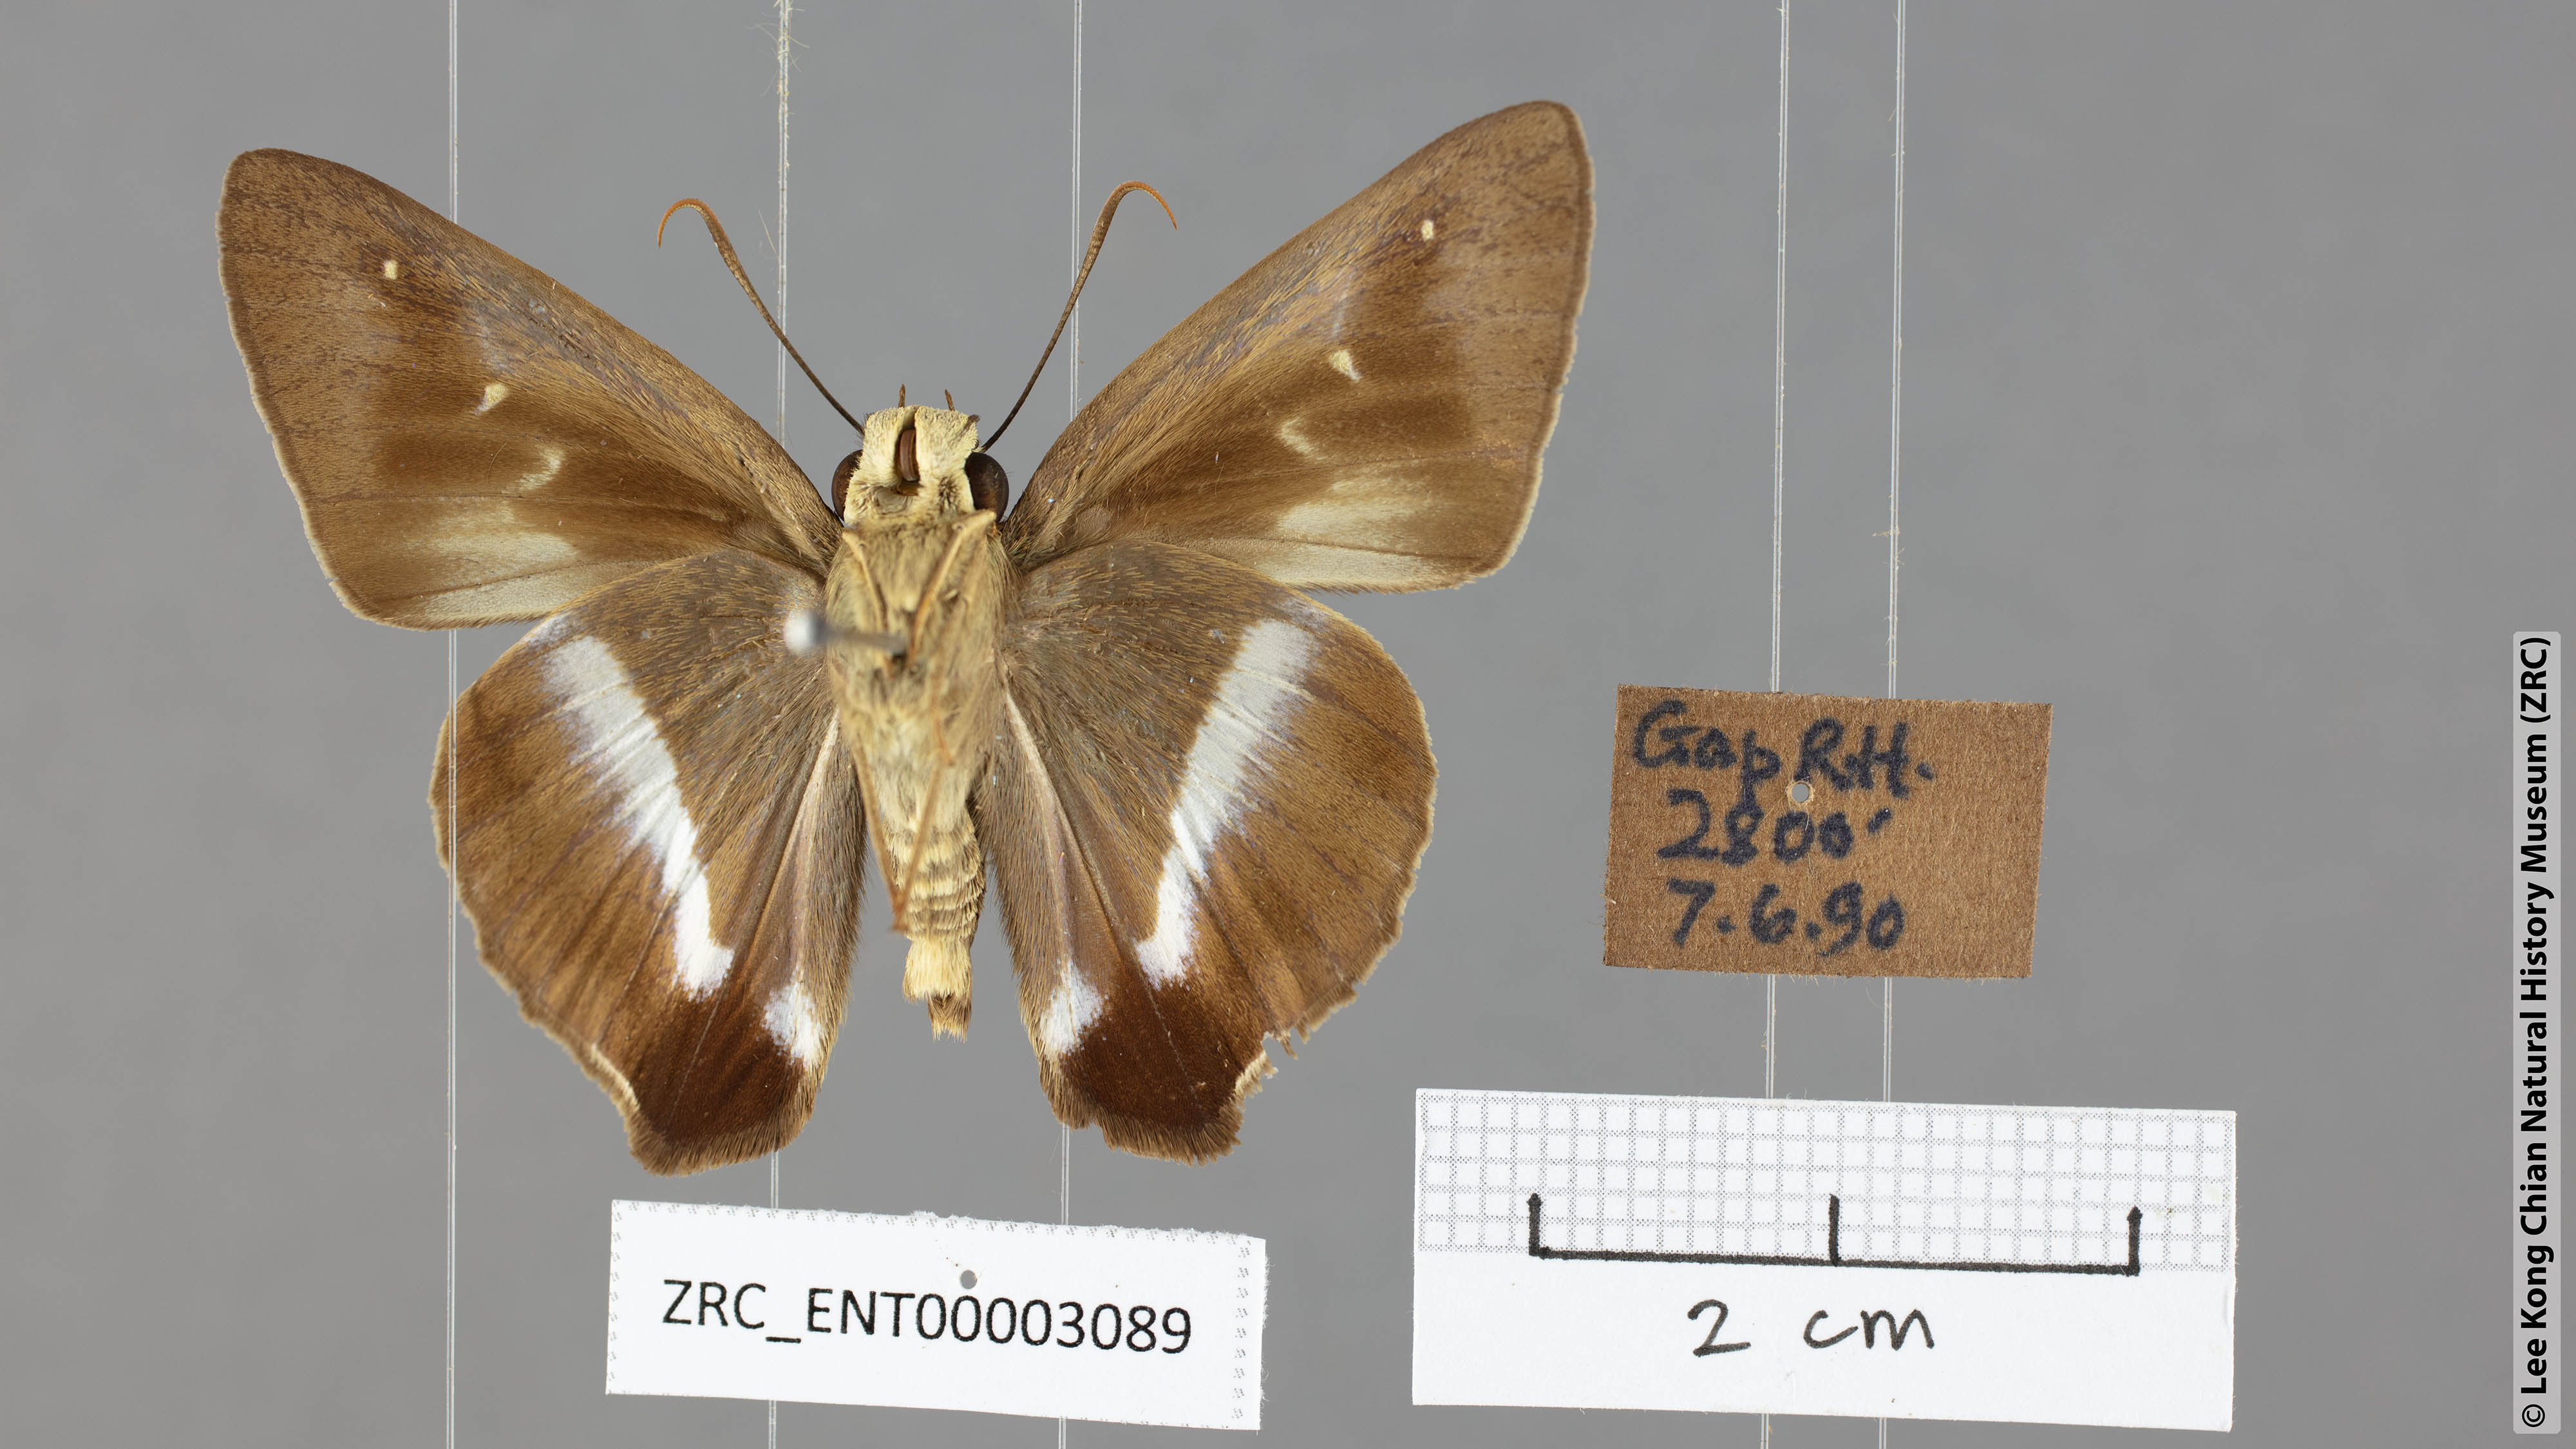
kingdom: Animalia
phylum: Arthropoda
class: Insecta
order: Lepidoptera
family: Hesperiidae
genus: Hasora
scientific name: Hasora vitta
